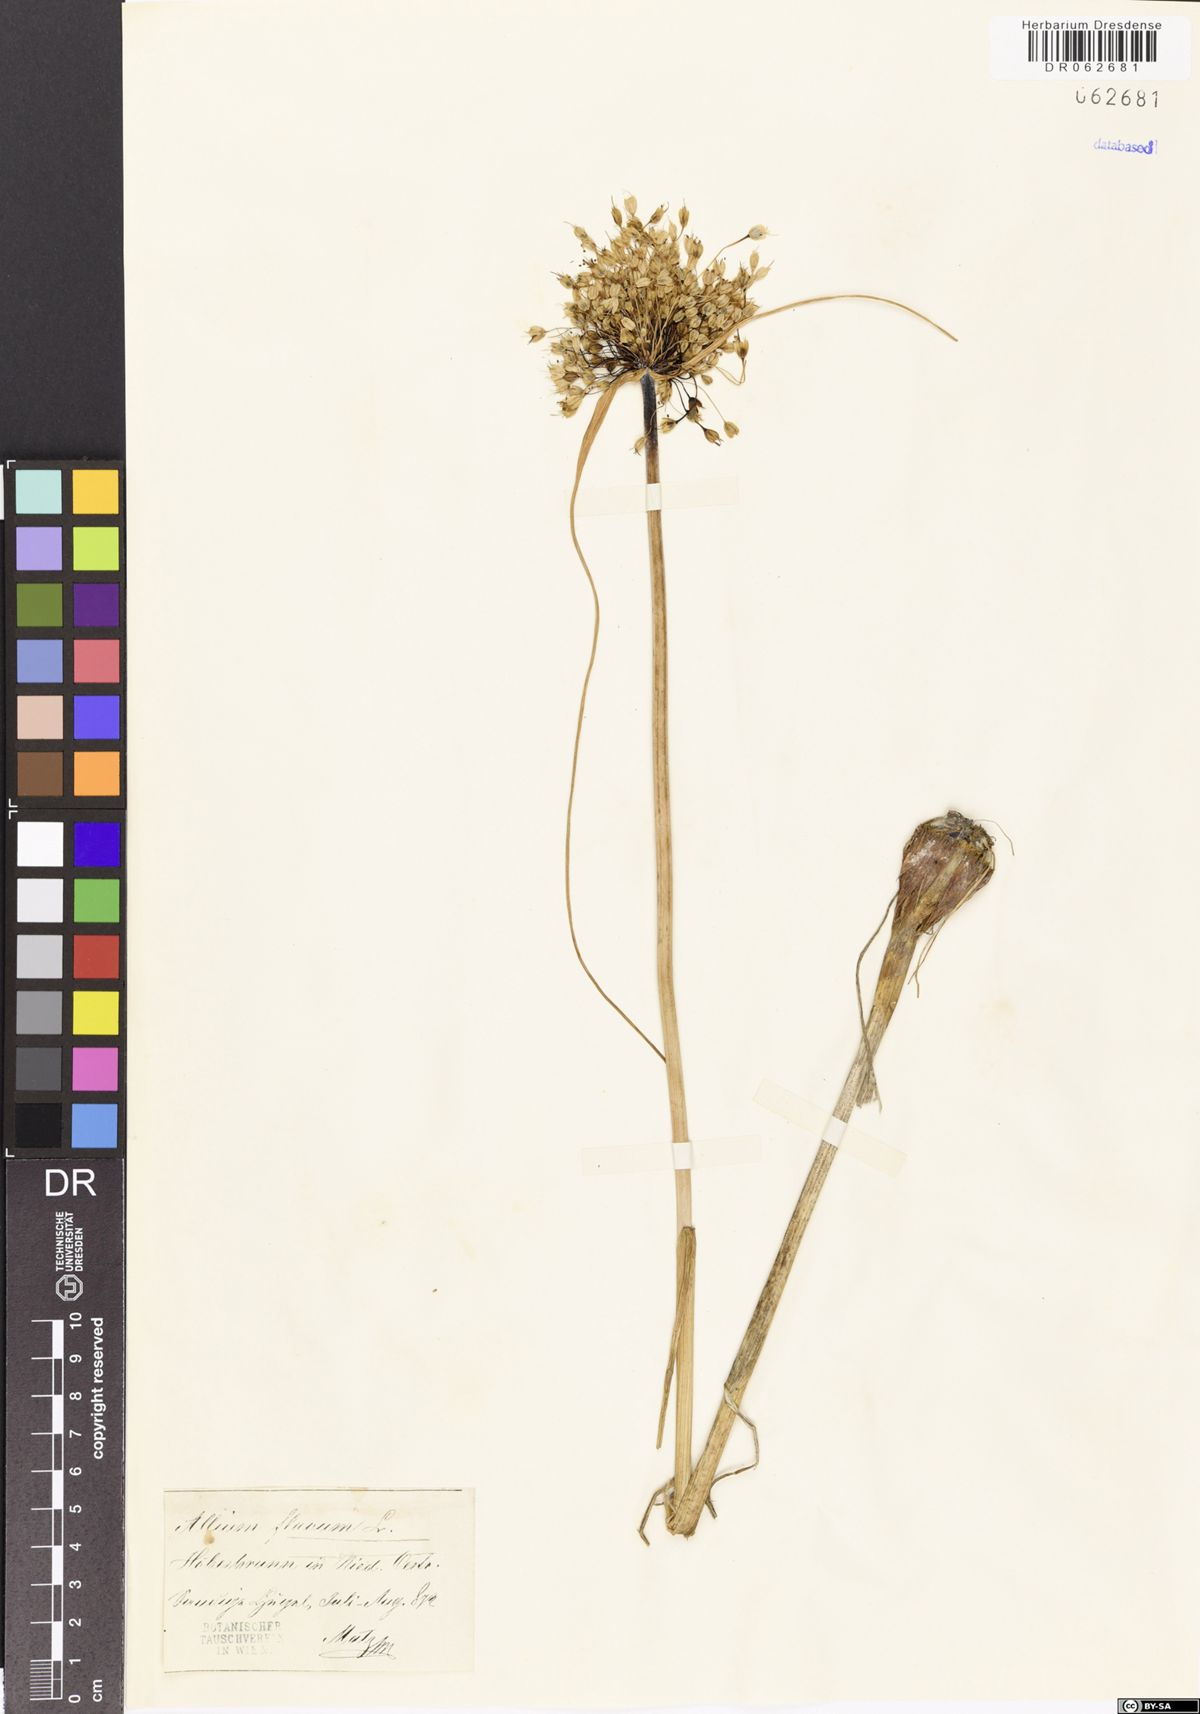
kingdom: Plantae
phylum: Tracheophyta
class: Liliopsida
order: Asparagales
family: Amaryllidaceae
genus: Allium
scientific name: Allium flavum
